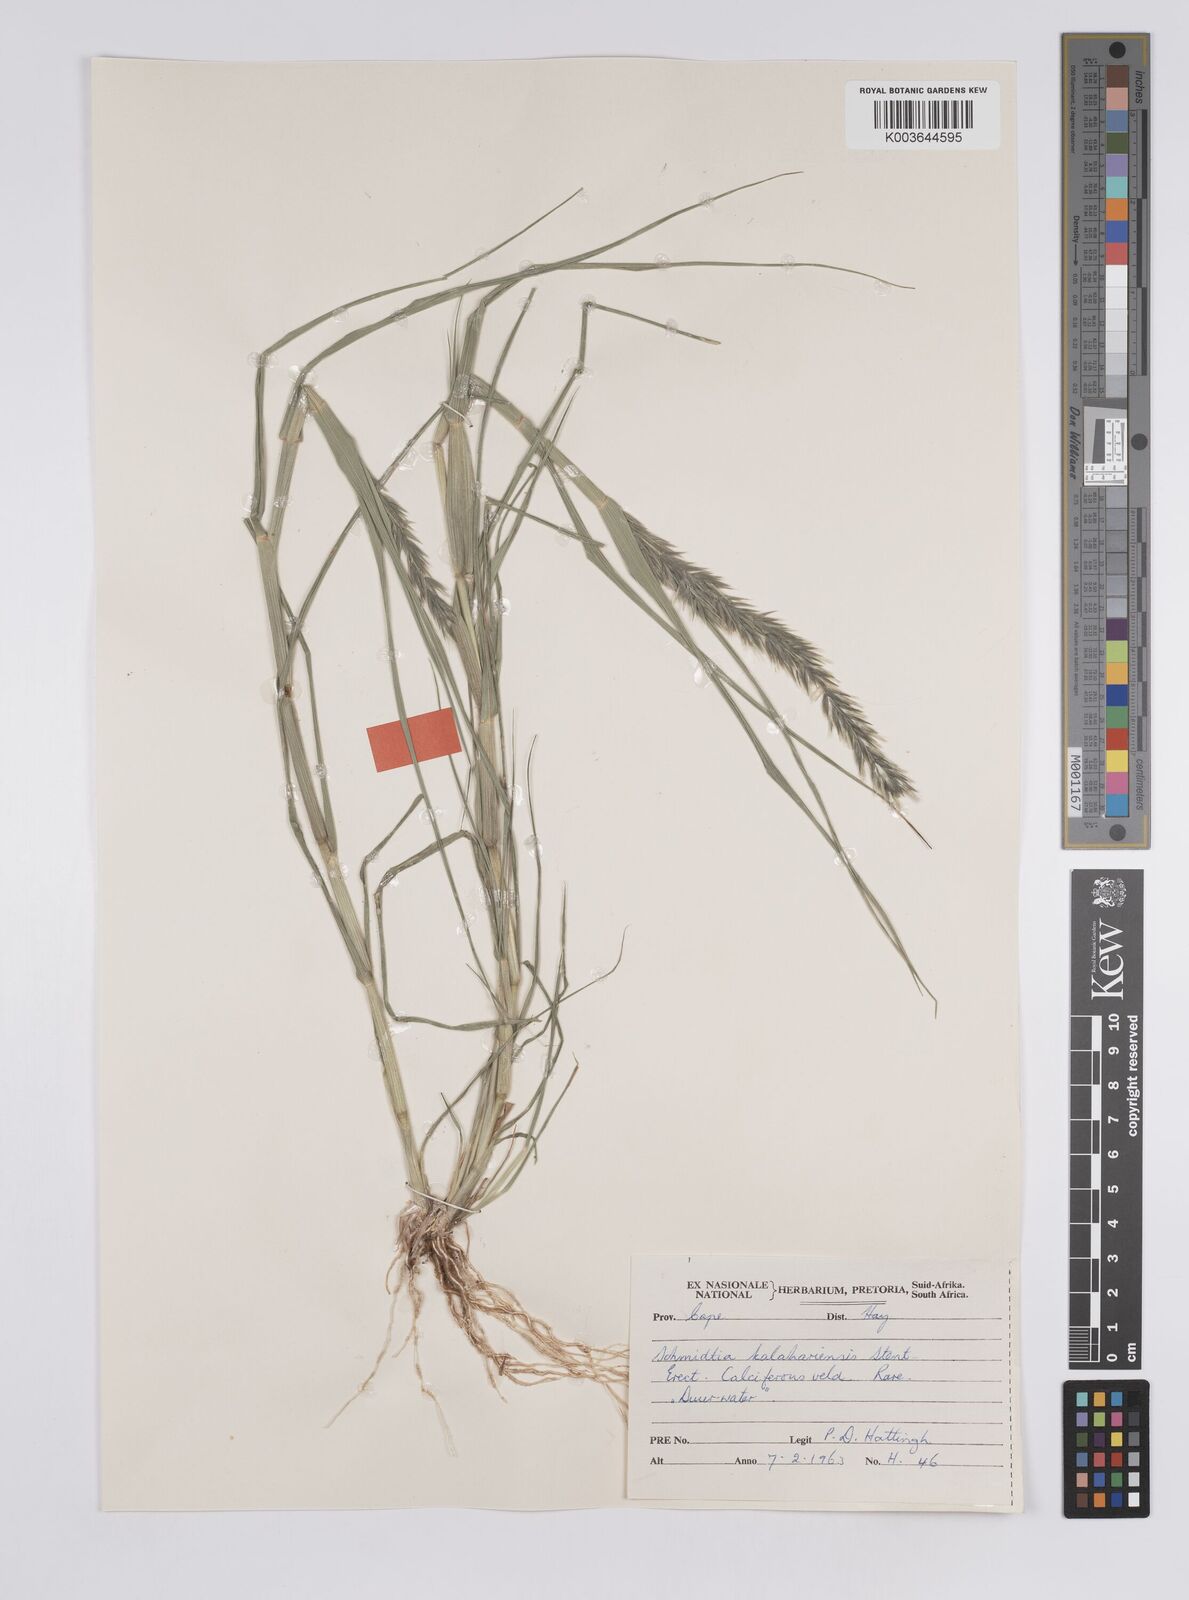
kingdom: Plantae
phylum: Tracheophyta
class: Liliopsida
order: Poales
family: Poaceae
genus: Schmidtia
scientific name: Schmidtia kalahariensis
